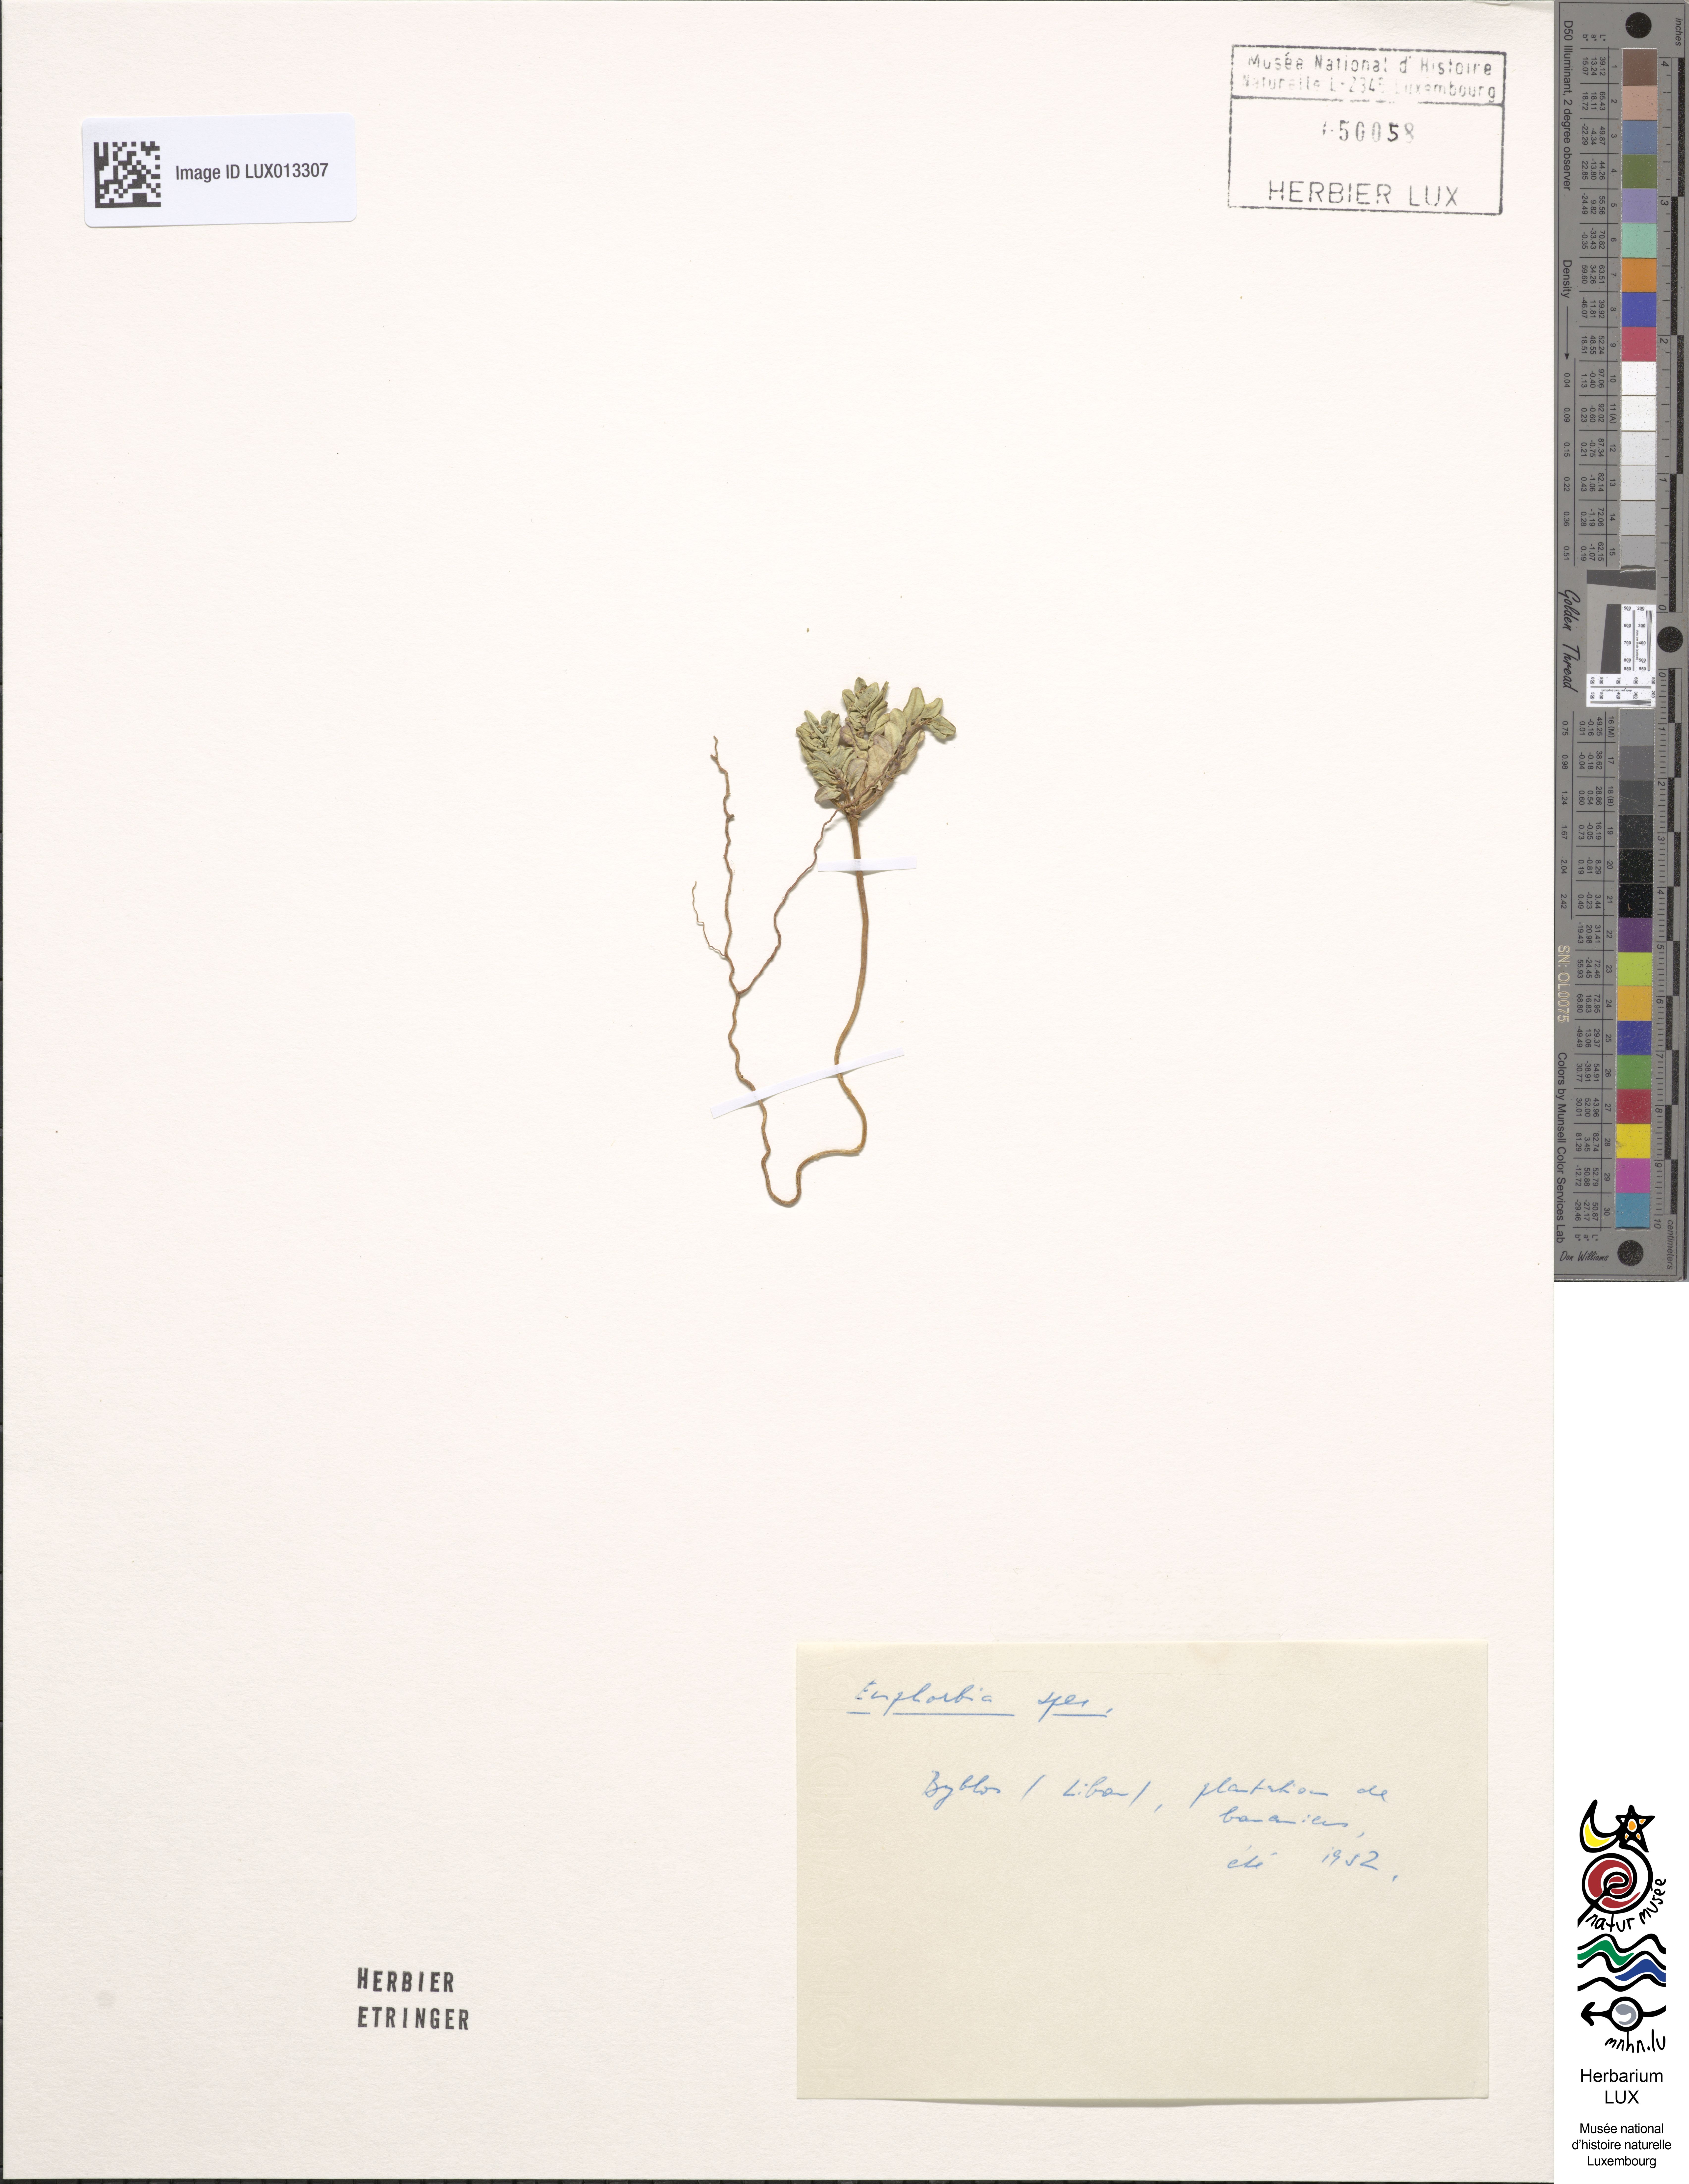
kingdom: Plantae
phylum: Tracheophyta
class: Magnoliopsida
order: Malpighiales
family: Euphorbiaceae
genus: Euphorbia
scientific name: Euphorbia
